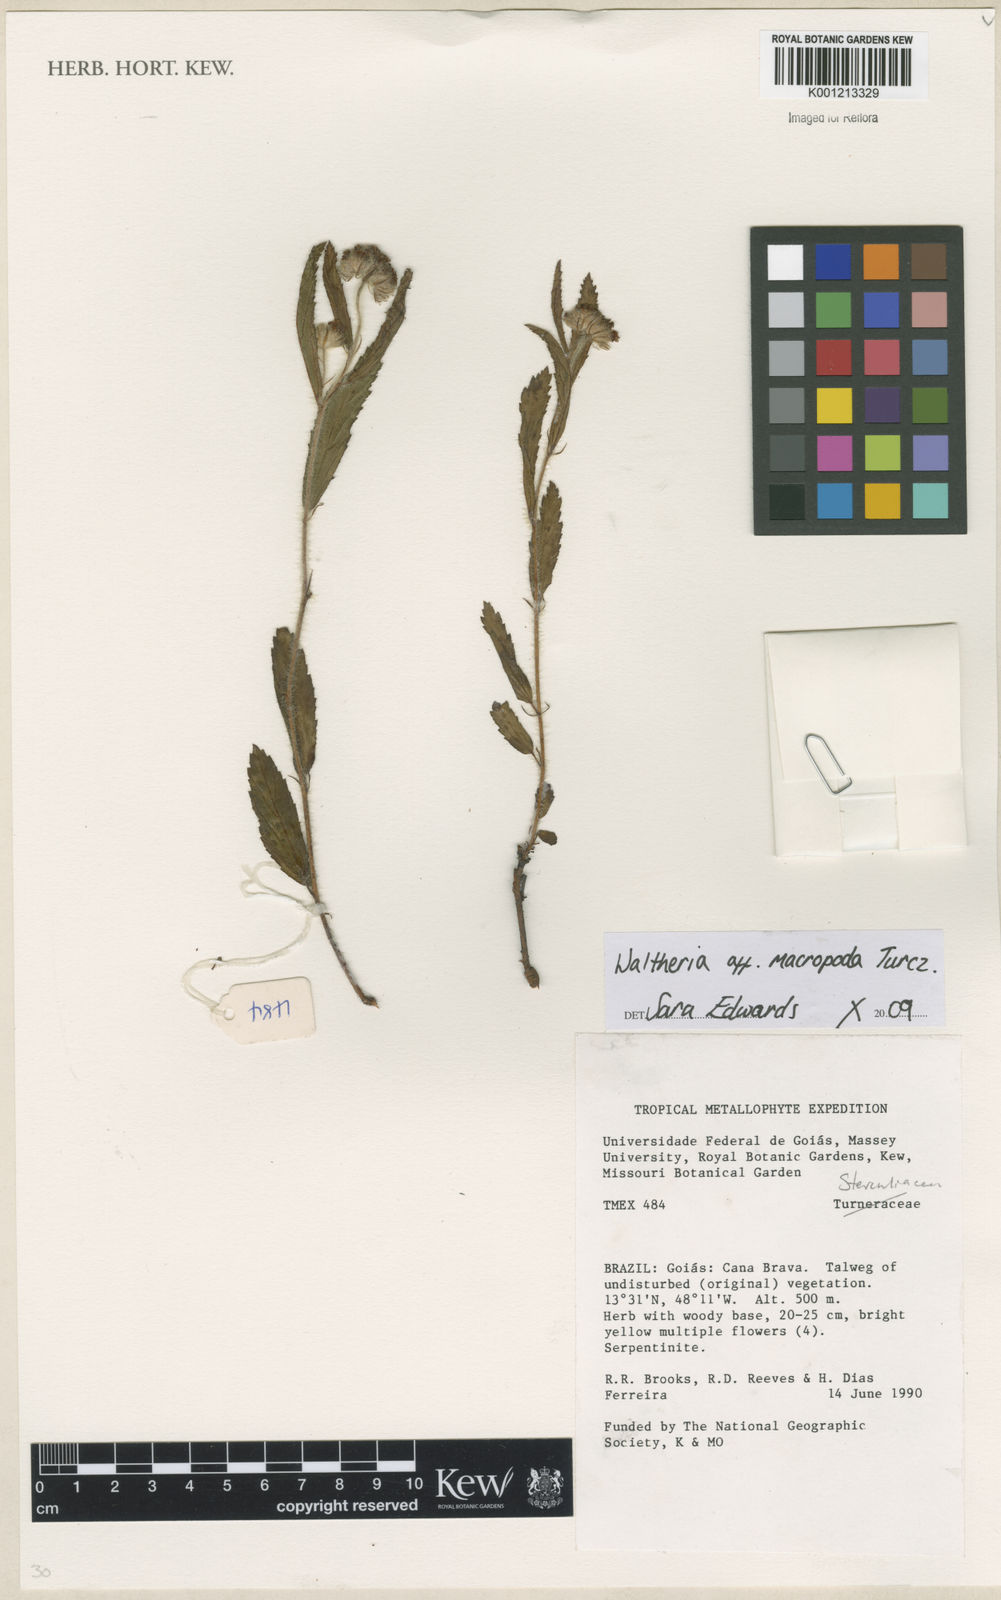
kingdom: Plantae
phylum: Tracheophyta
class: Magnoliopsida
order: Malvales
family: Malvaceae
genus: Waltheria
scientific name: Waltheria bracteosa
